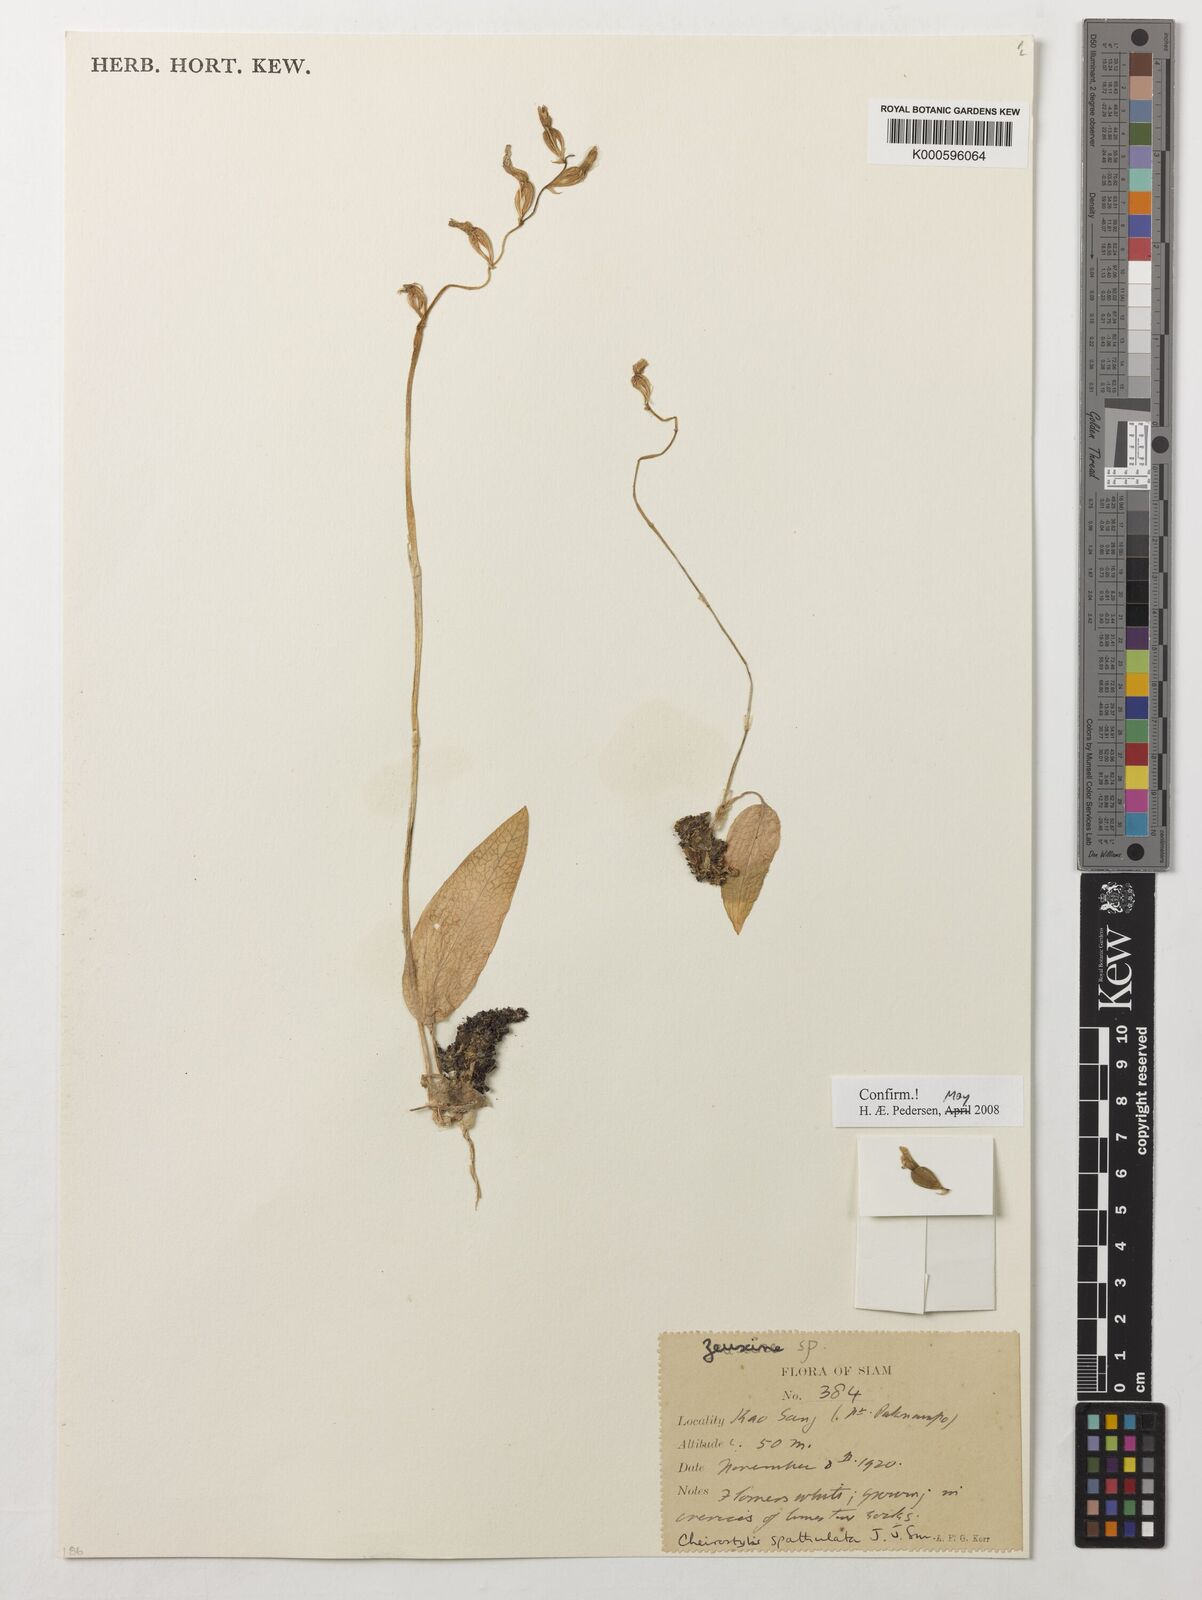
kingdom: Plantae
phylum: Tracheophyta
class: Liliopsida
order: Asparagales
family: Orchidaceae
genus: Cheirostylis
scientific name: Cheirostylis spathulata
